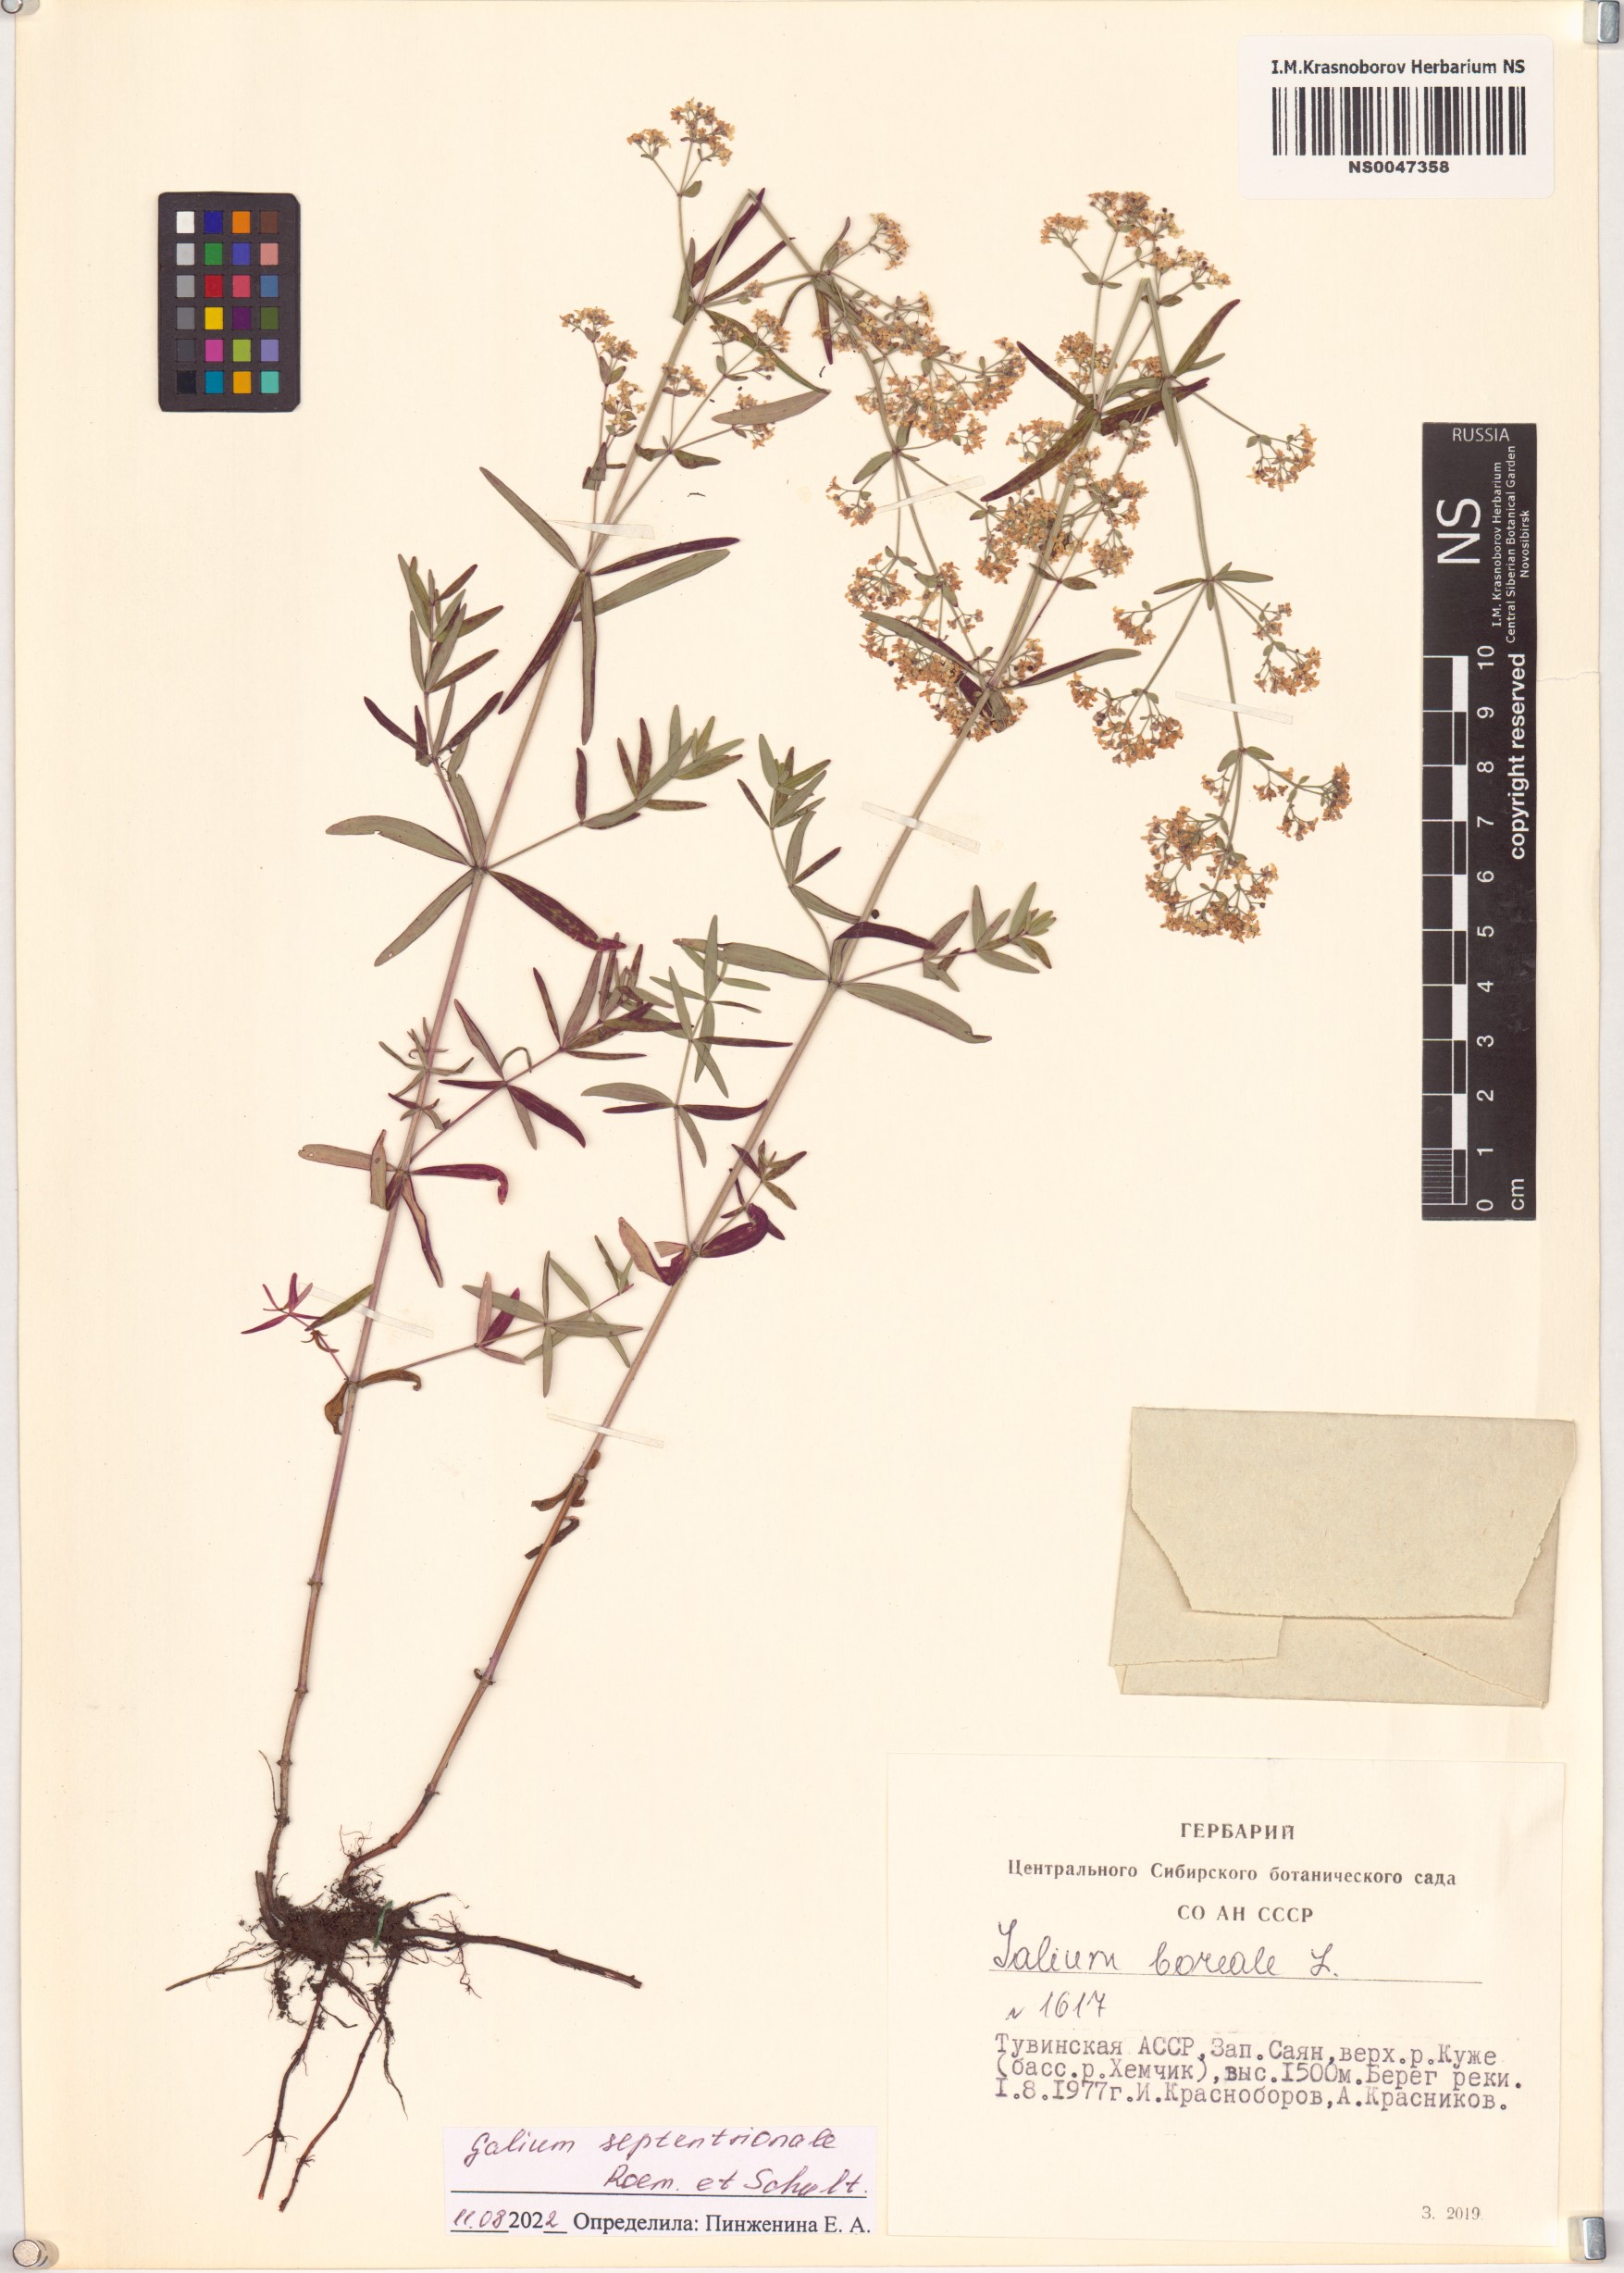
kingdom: Plantae
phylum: Tracheophyta
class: Magnoliopsida
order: Gentianales
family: Rubiaceae
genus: Galium
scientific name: Galium boreale
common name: Northern bedstraw
